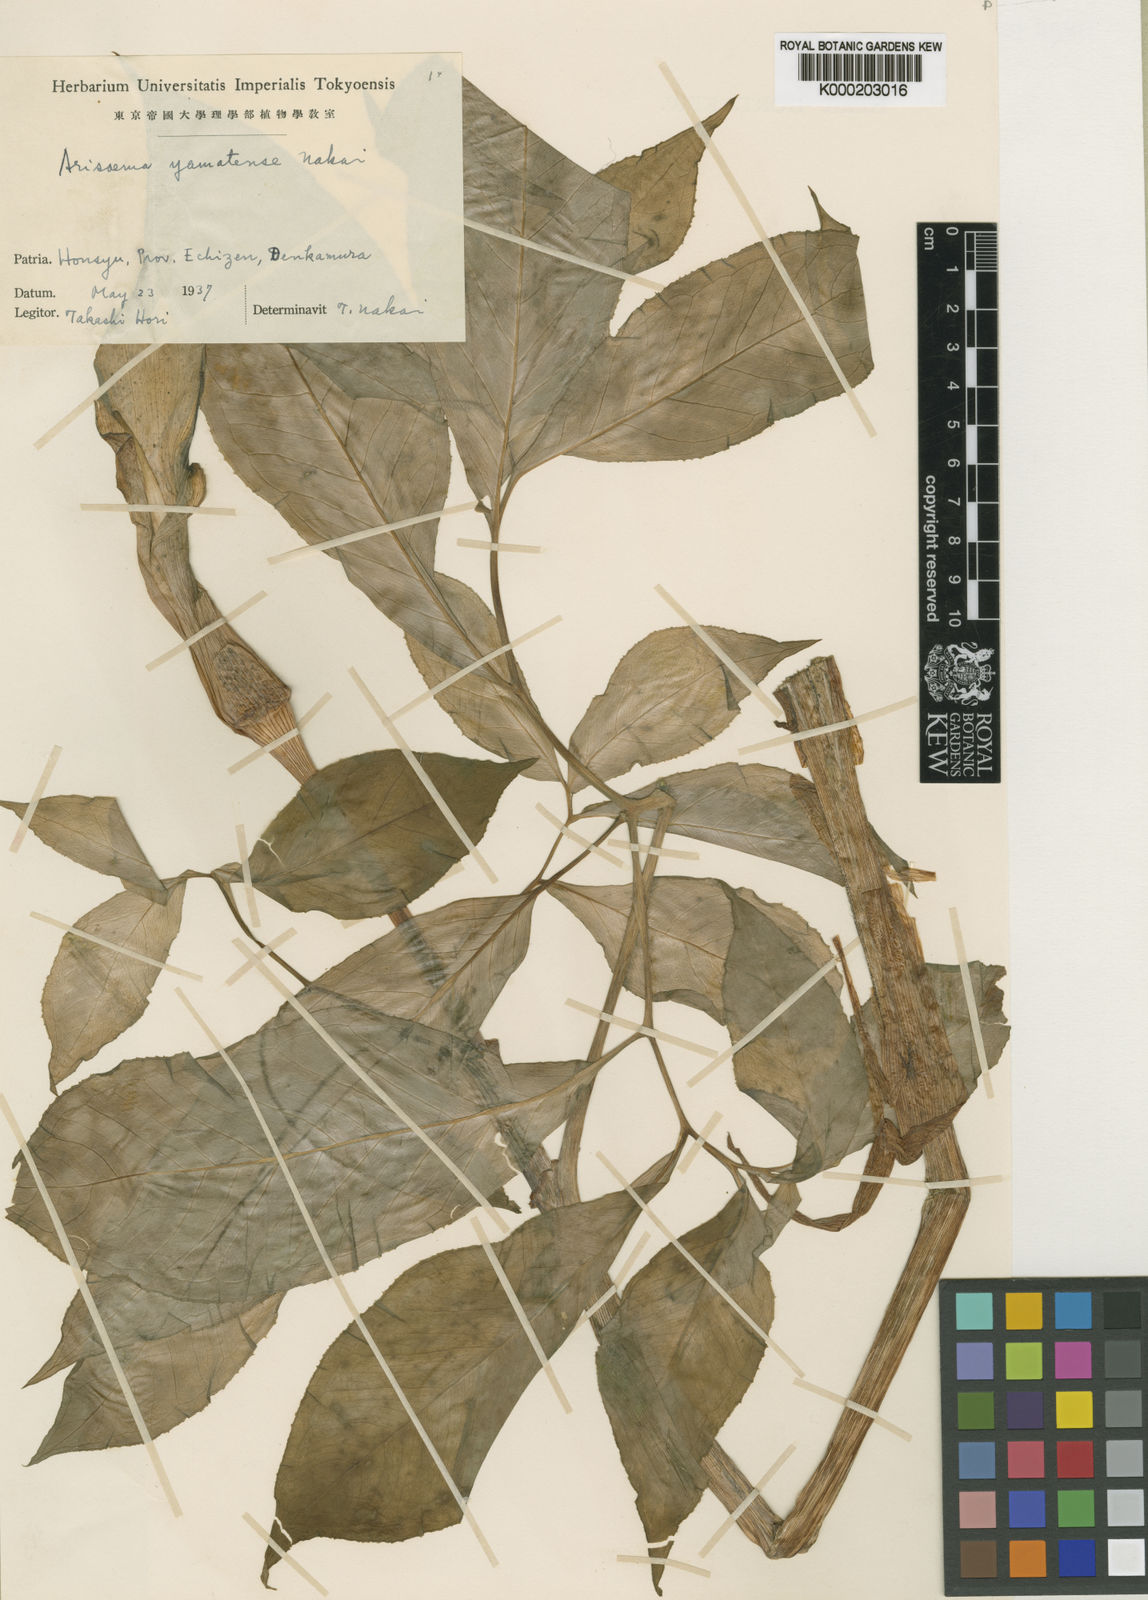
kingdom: Plantae
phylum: Tracheophyta
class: Liliopsida
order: Alismatales
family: Araceae
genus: Arisaema
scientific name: Arisaema yamatense
